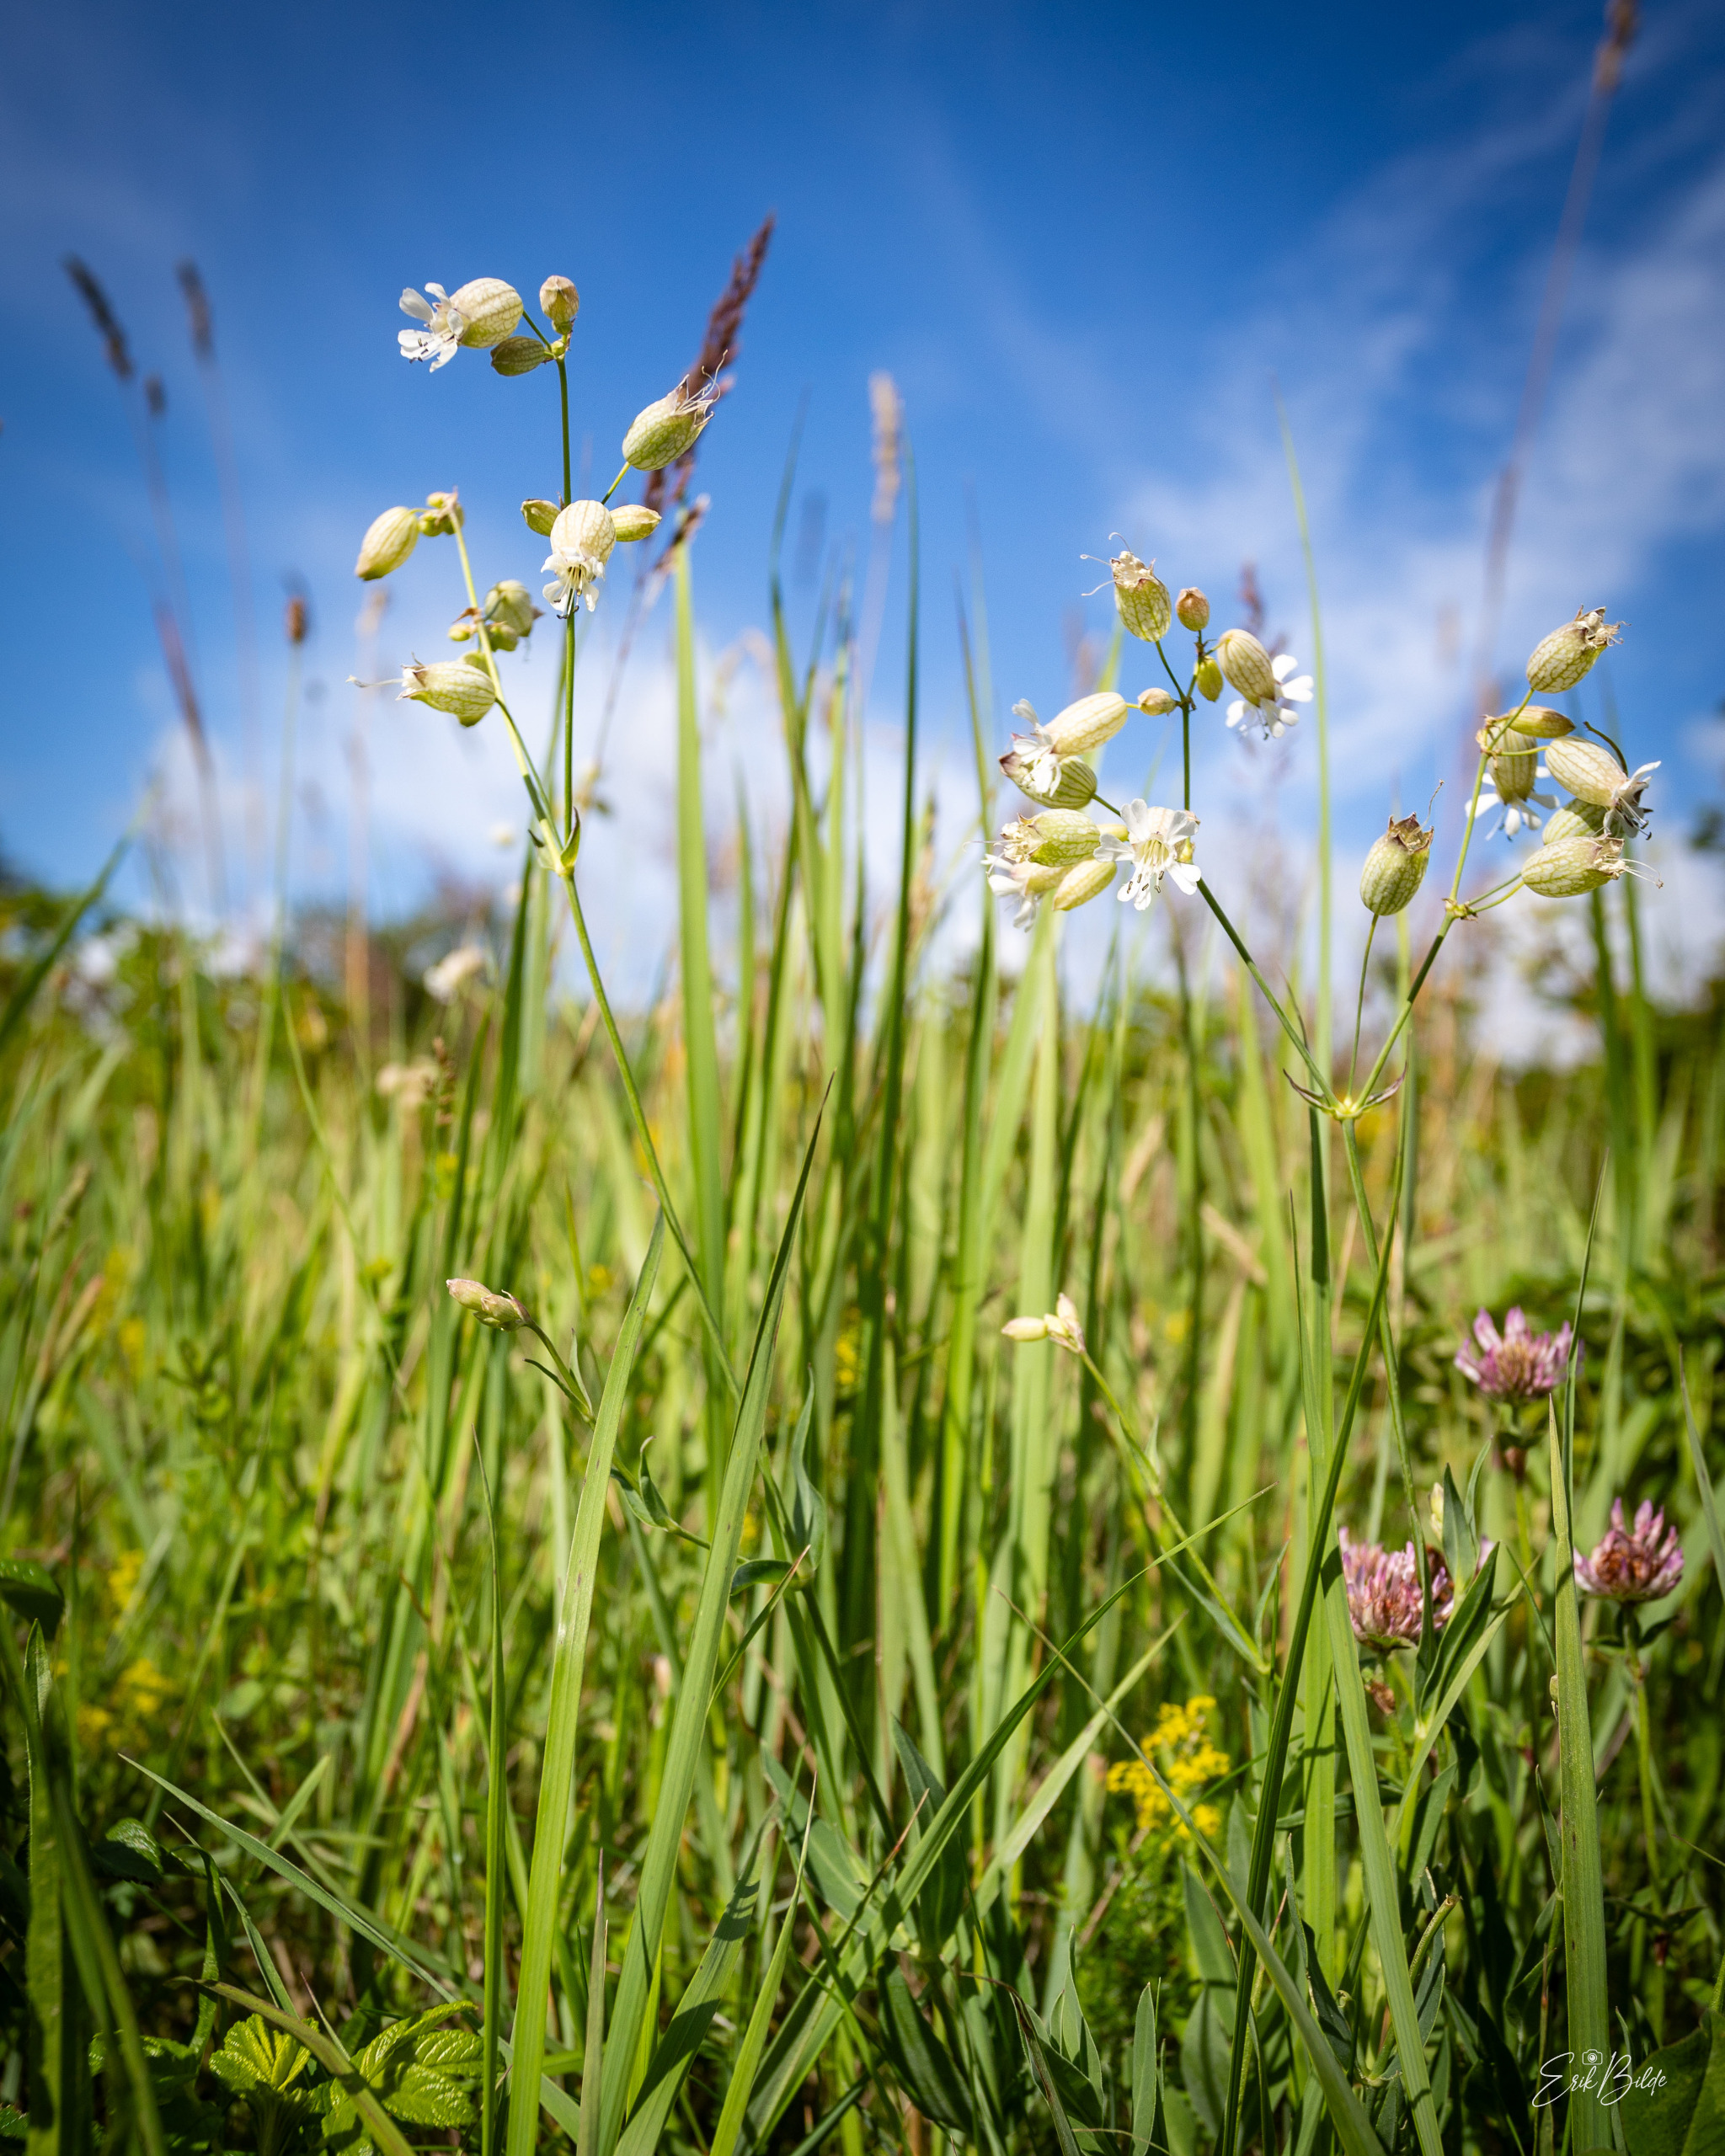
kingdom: Plantae
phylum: Tracheophyta
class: Magnoliopsida
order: Caryophyllales
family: Caryophyllaceae
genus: Silene
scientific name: Silene vulgaris
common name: Blæresmælde
